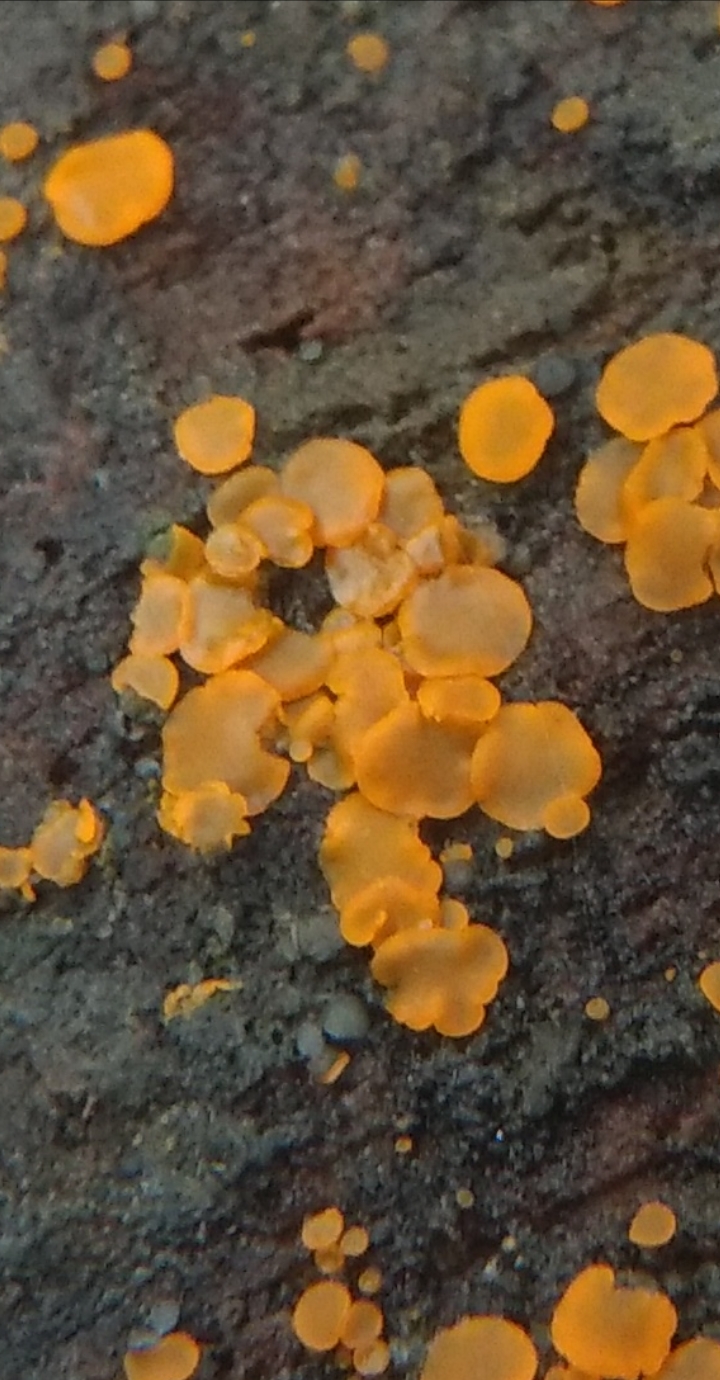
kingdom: Fungi
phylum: Ascomycota
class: Orbiliomycetes
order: Orbiliales
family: Orbiliaceae
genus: Orbilia
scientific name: Orbilia xanthostigma
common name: krumsporet voksskive
